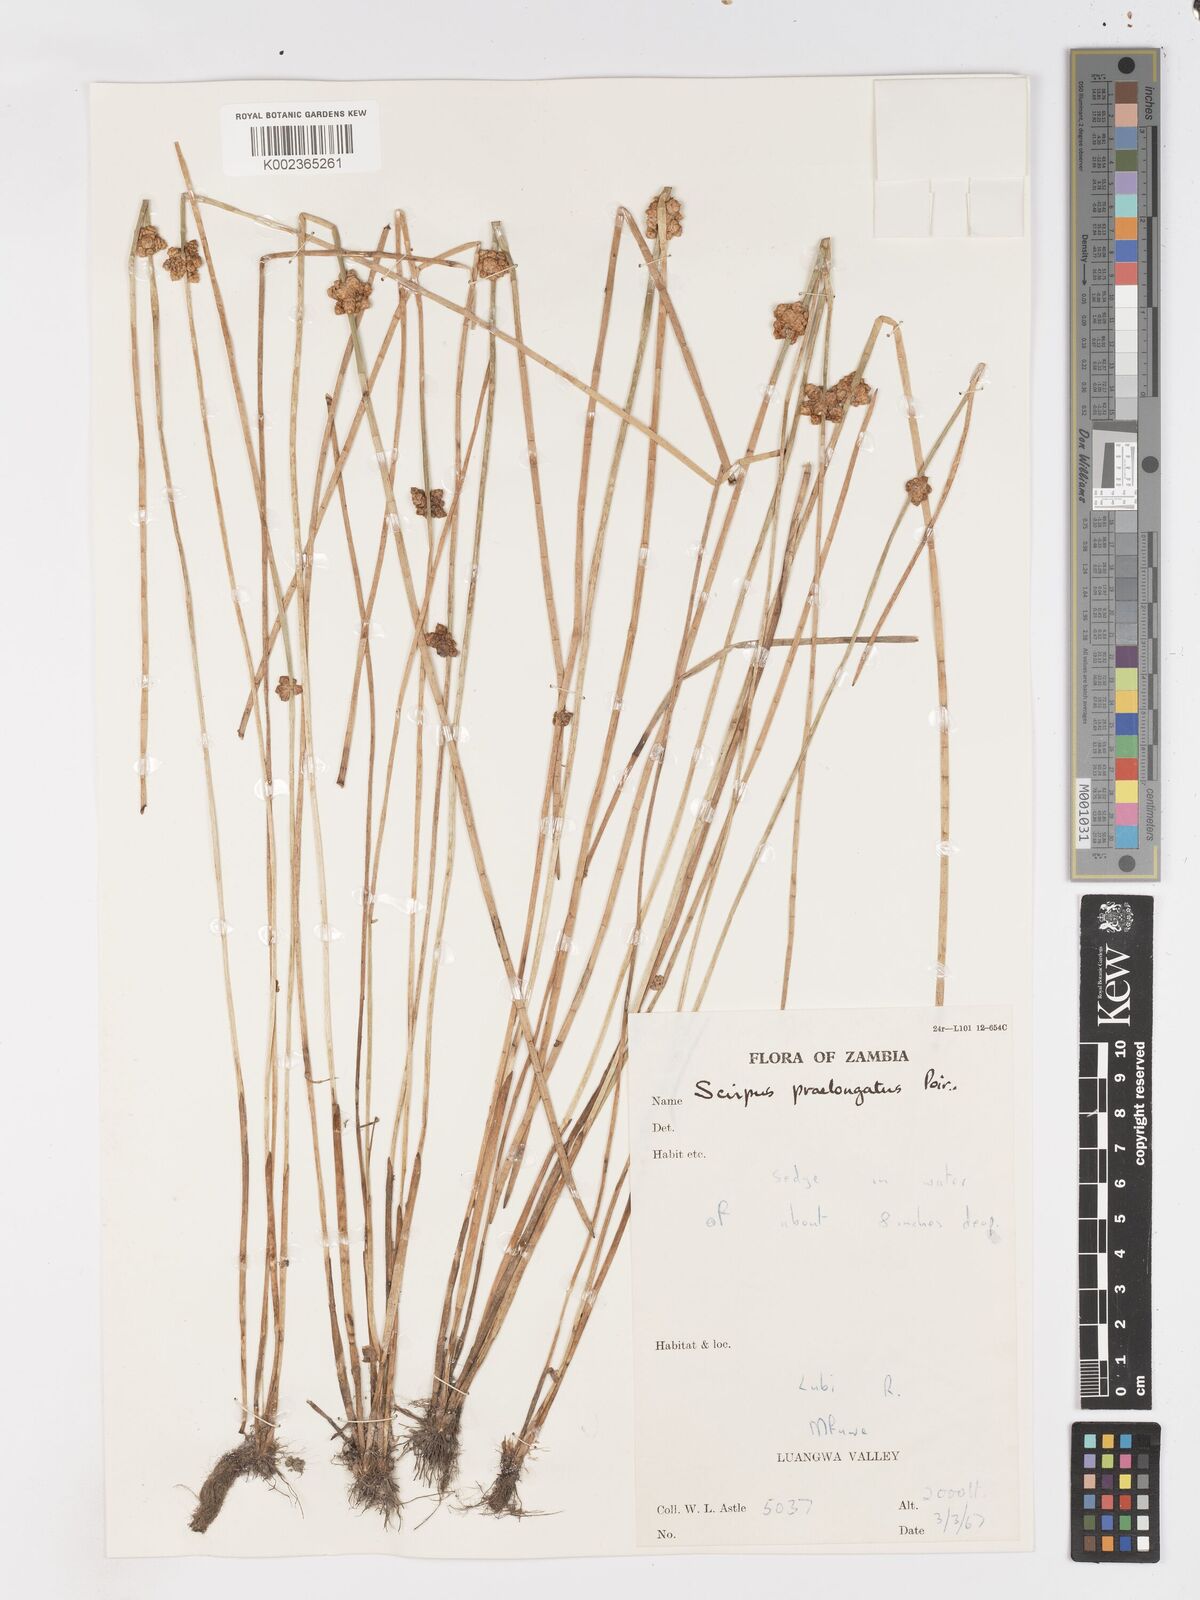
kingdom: Plantae
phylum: Tracheophyta
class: Liliopsida
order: Poales
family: Cyperaceae
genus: Schoenoplectiella
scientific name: Schoenoplectiella senegalensis
